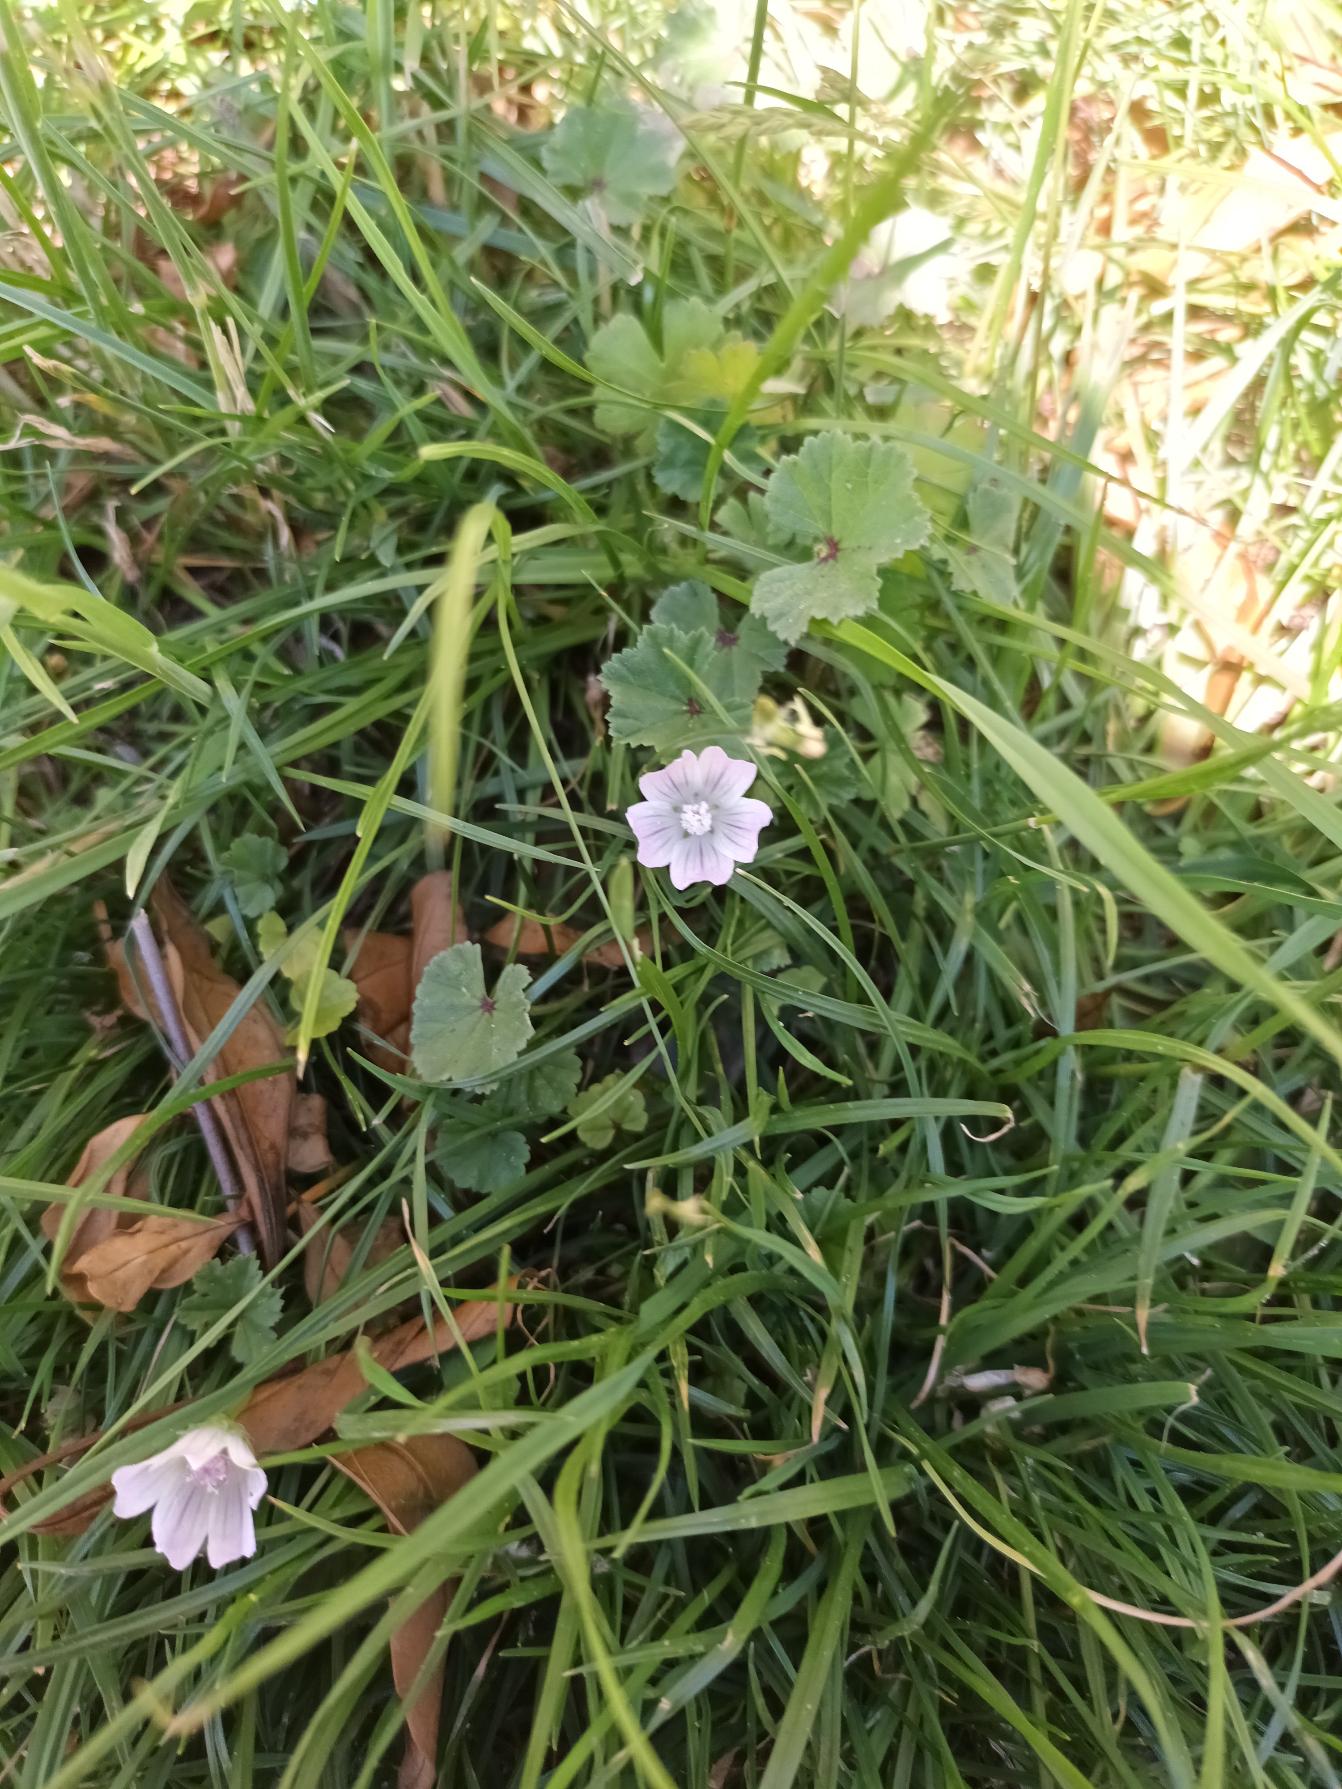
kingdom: Plantae
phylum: Tracheophyta
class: Magnoliopsida
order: Malvales
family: Malvaceae
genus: Malva
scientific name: Malva neglecta
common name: Rundbladet katost
